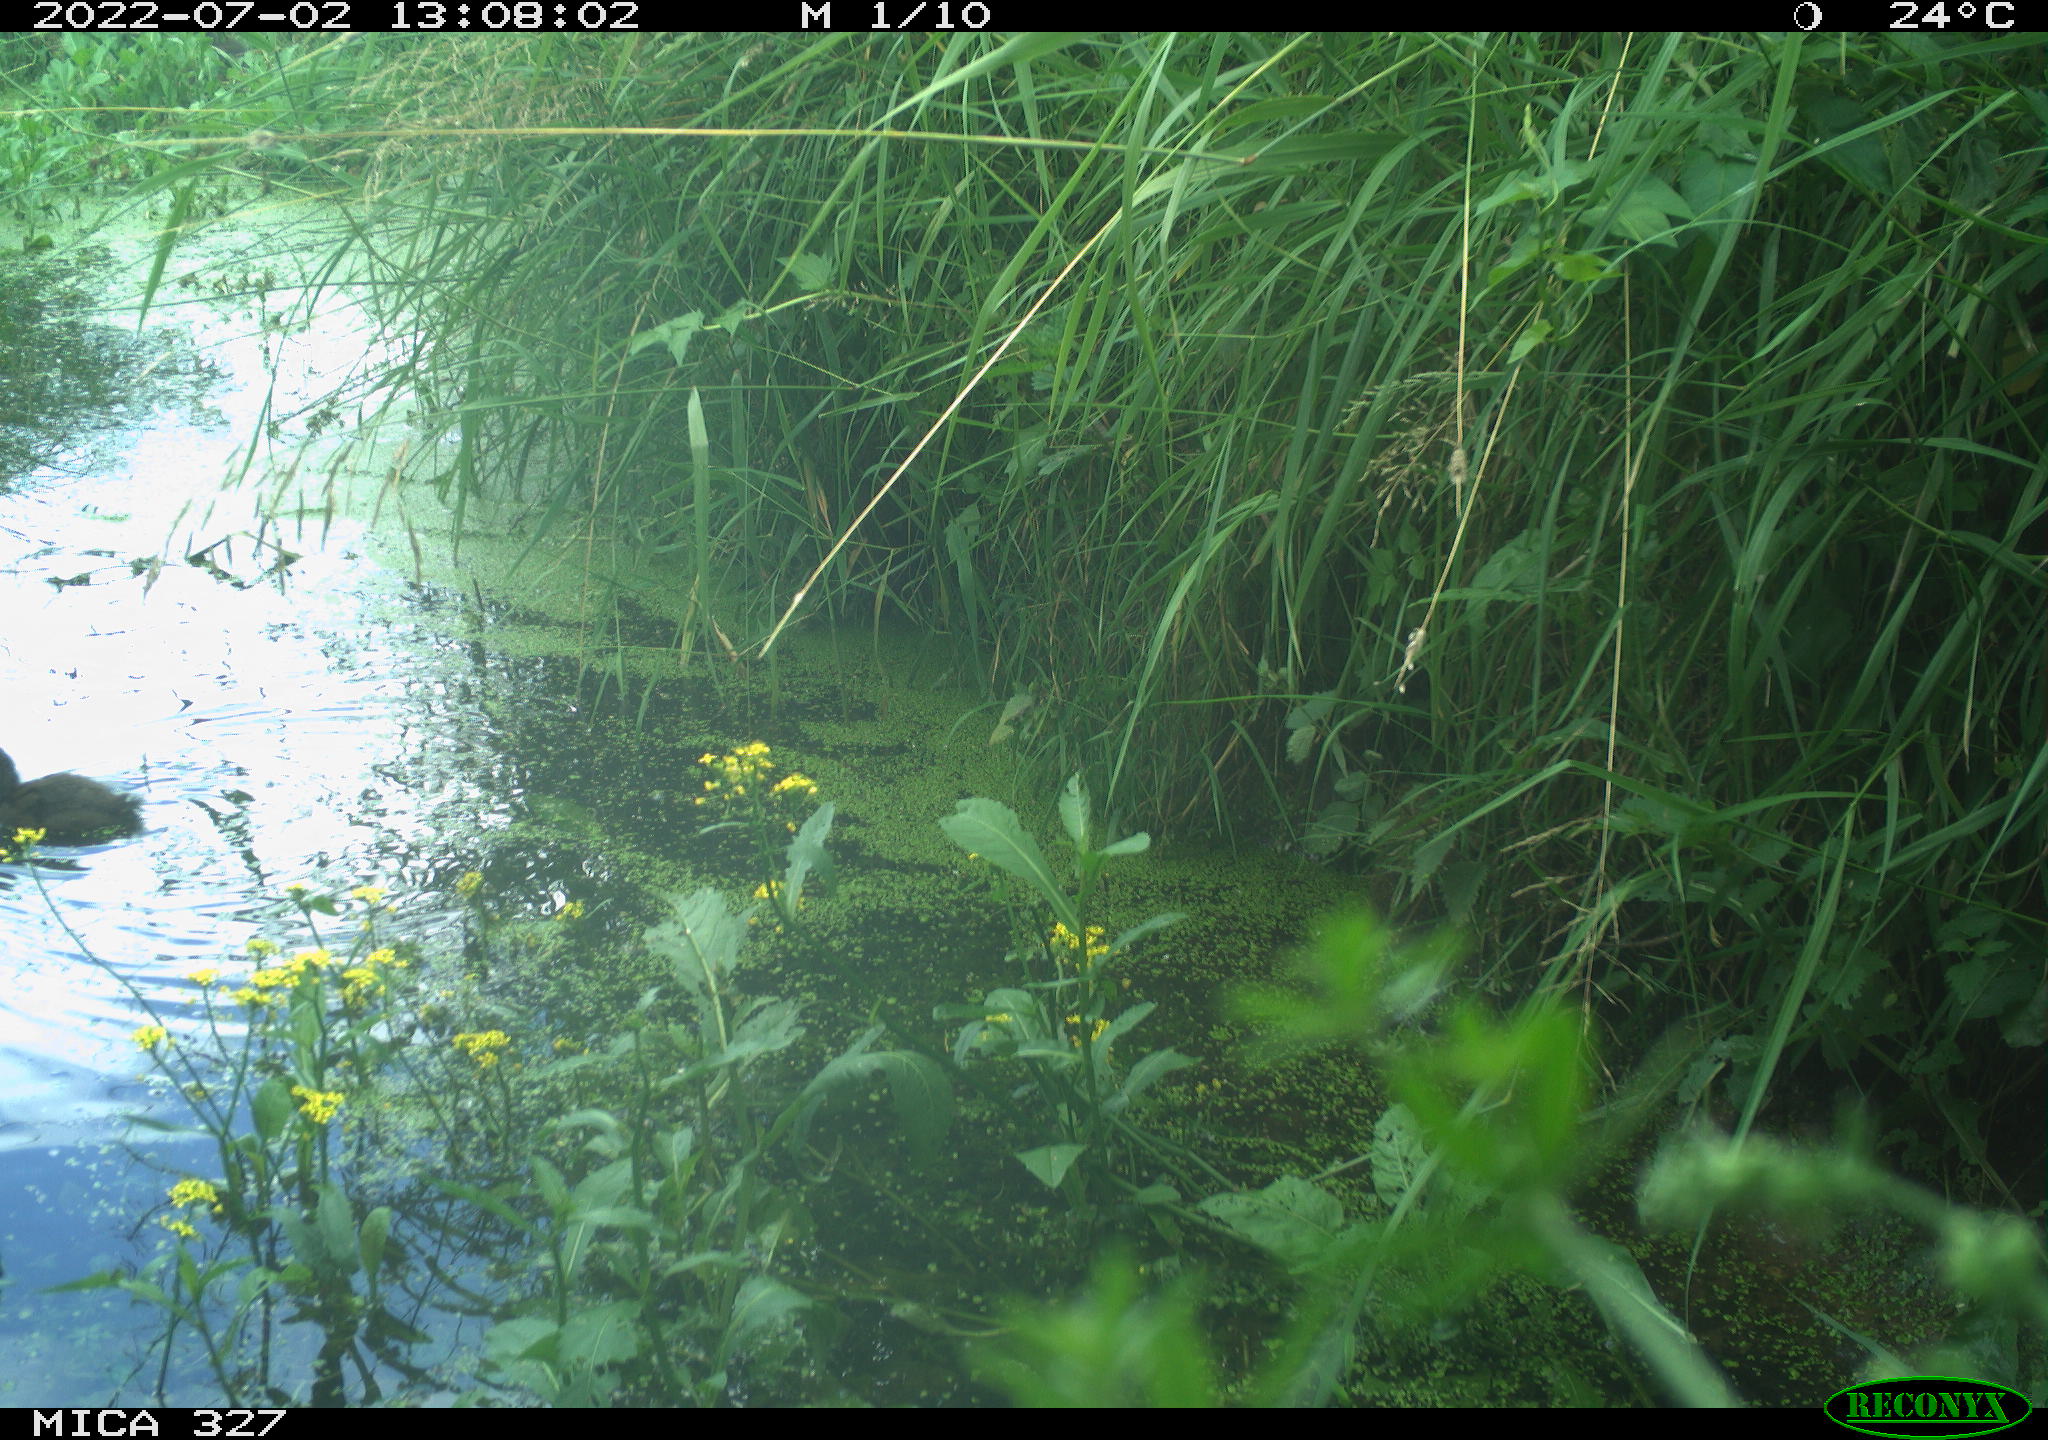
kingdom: Animalia
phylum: Chordata
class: Aves
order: Gruiformes
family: Rallidae
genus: Gallinula
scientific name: Gallinula chloropus
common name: Common moorhen
